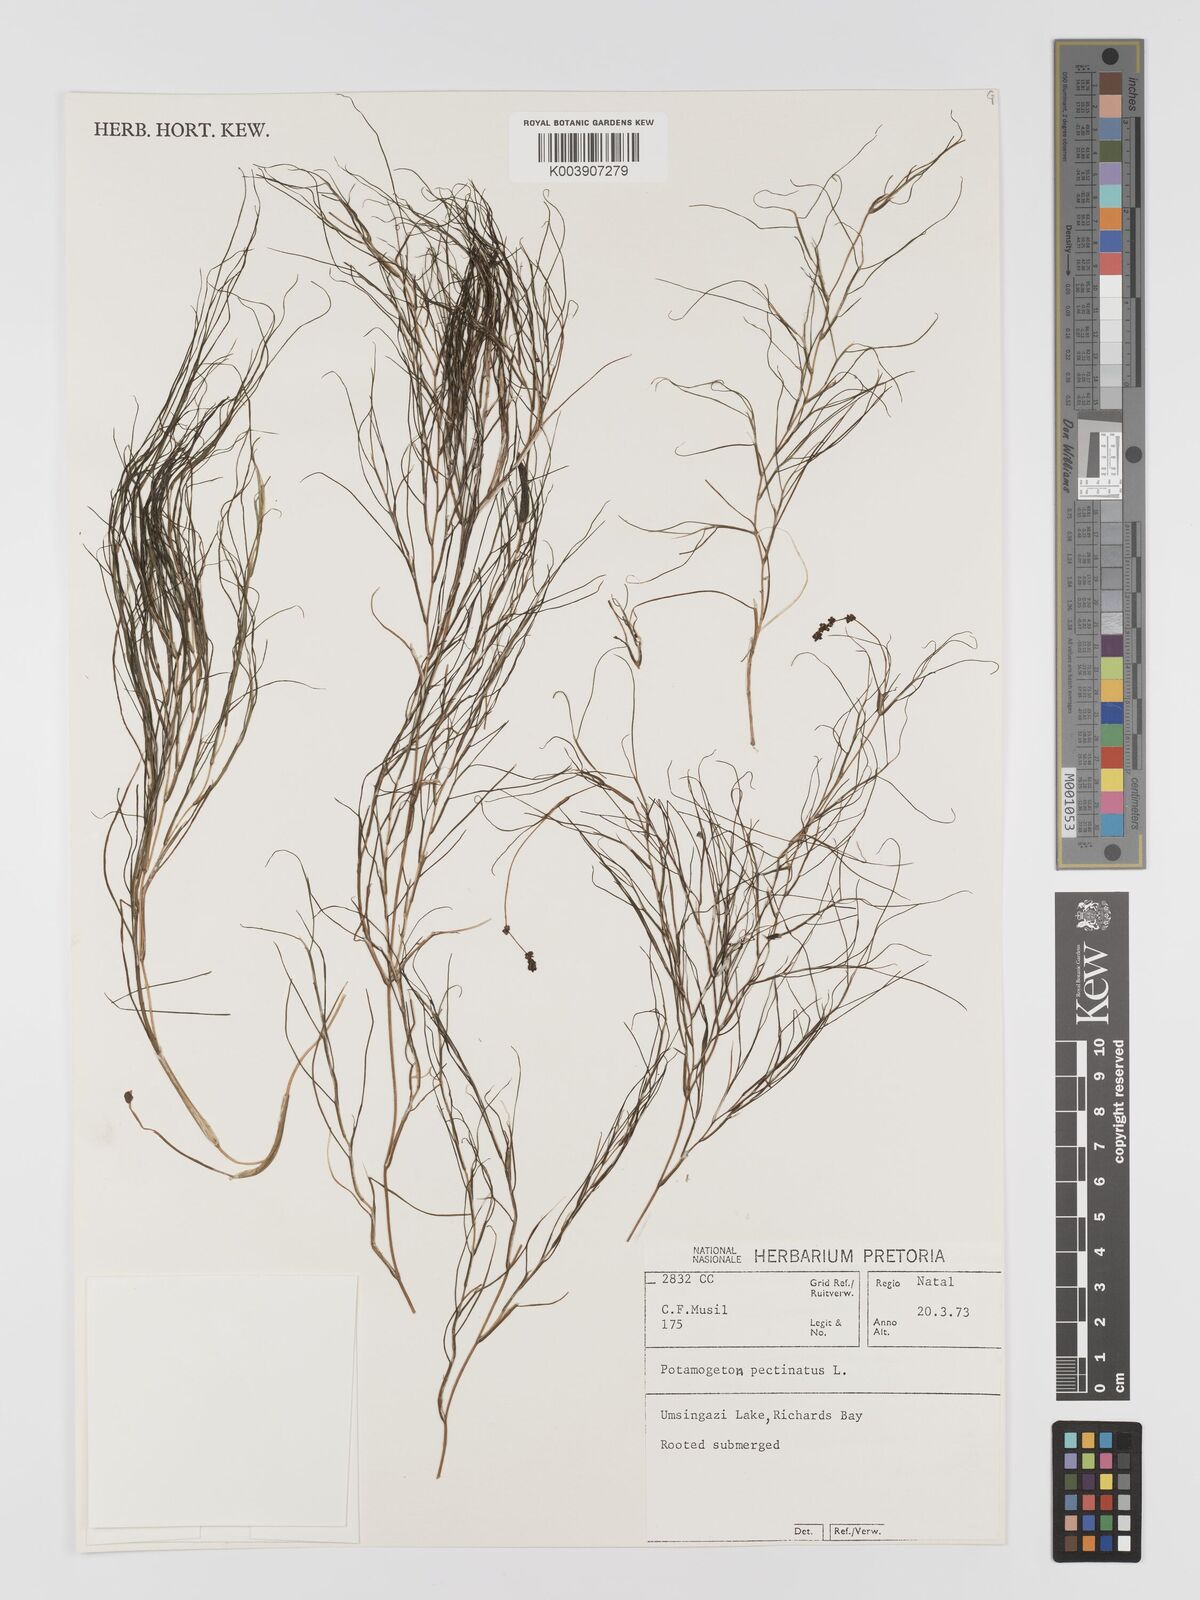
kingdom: Plantae
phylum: Tracheophyta
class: Liliopsida
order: Alismatales
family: Potamogetonaceae
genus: Stuckenia
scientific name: Stuckenia pectinata
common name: Sago pondweed
